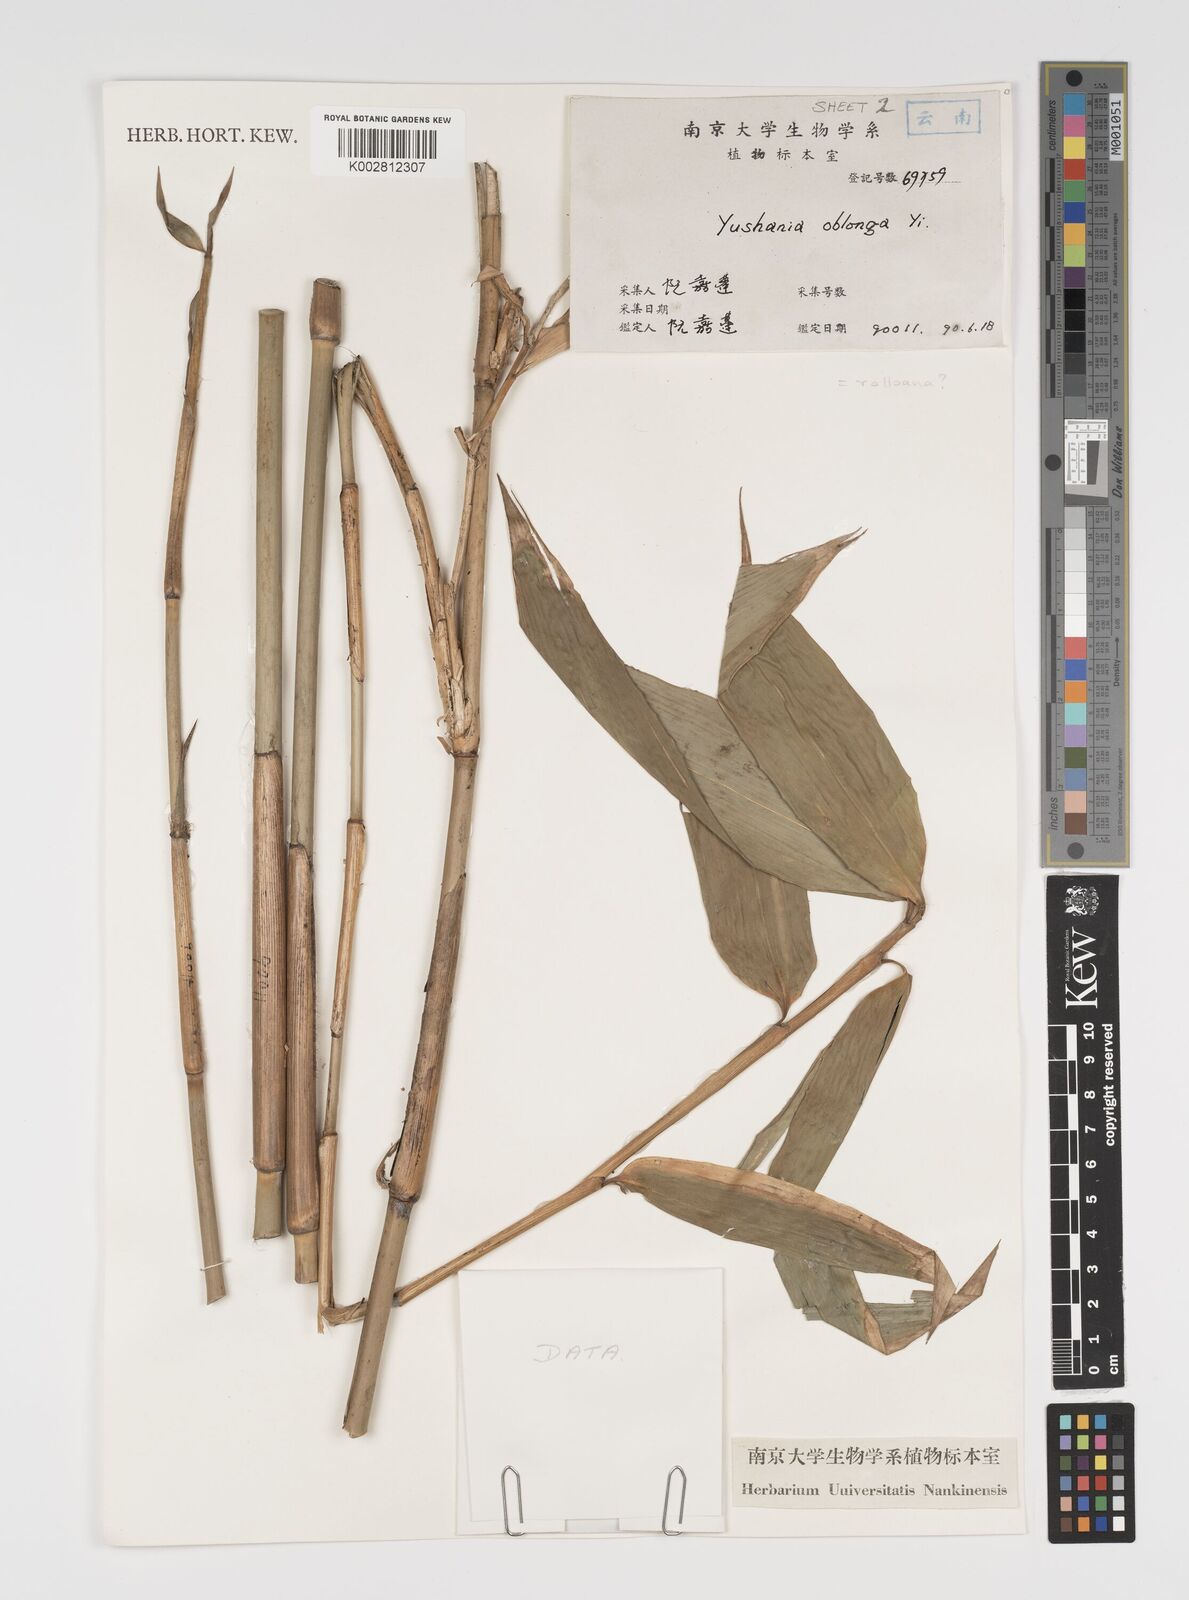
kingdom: Plantae
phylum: Tracheophyta
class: Liliopsida
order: Poales
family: Poaceae
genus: Yushania
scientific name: Yushania oblonga
